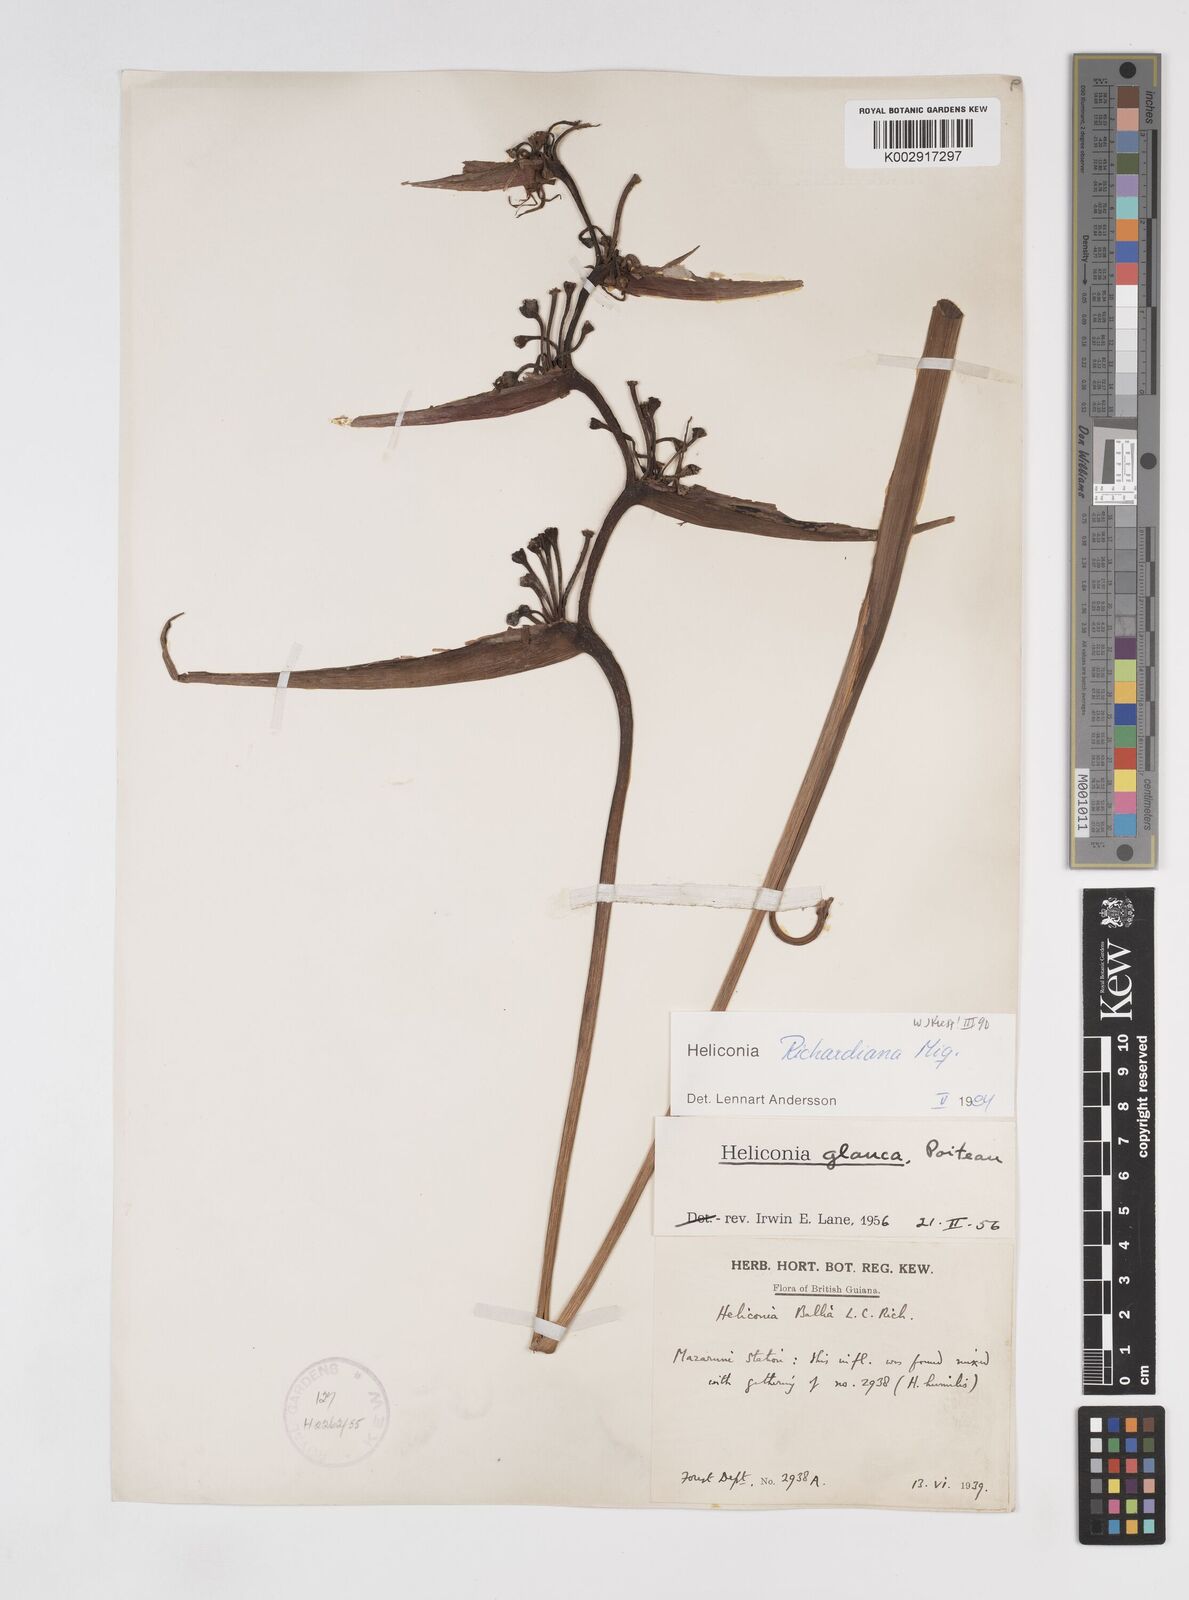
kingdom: Plantae
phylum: Tracheophyta
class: Liliopsida
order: Zingiberales
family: Heliconiaceae
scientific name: Heliconiaceae
